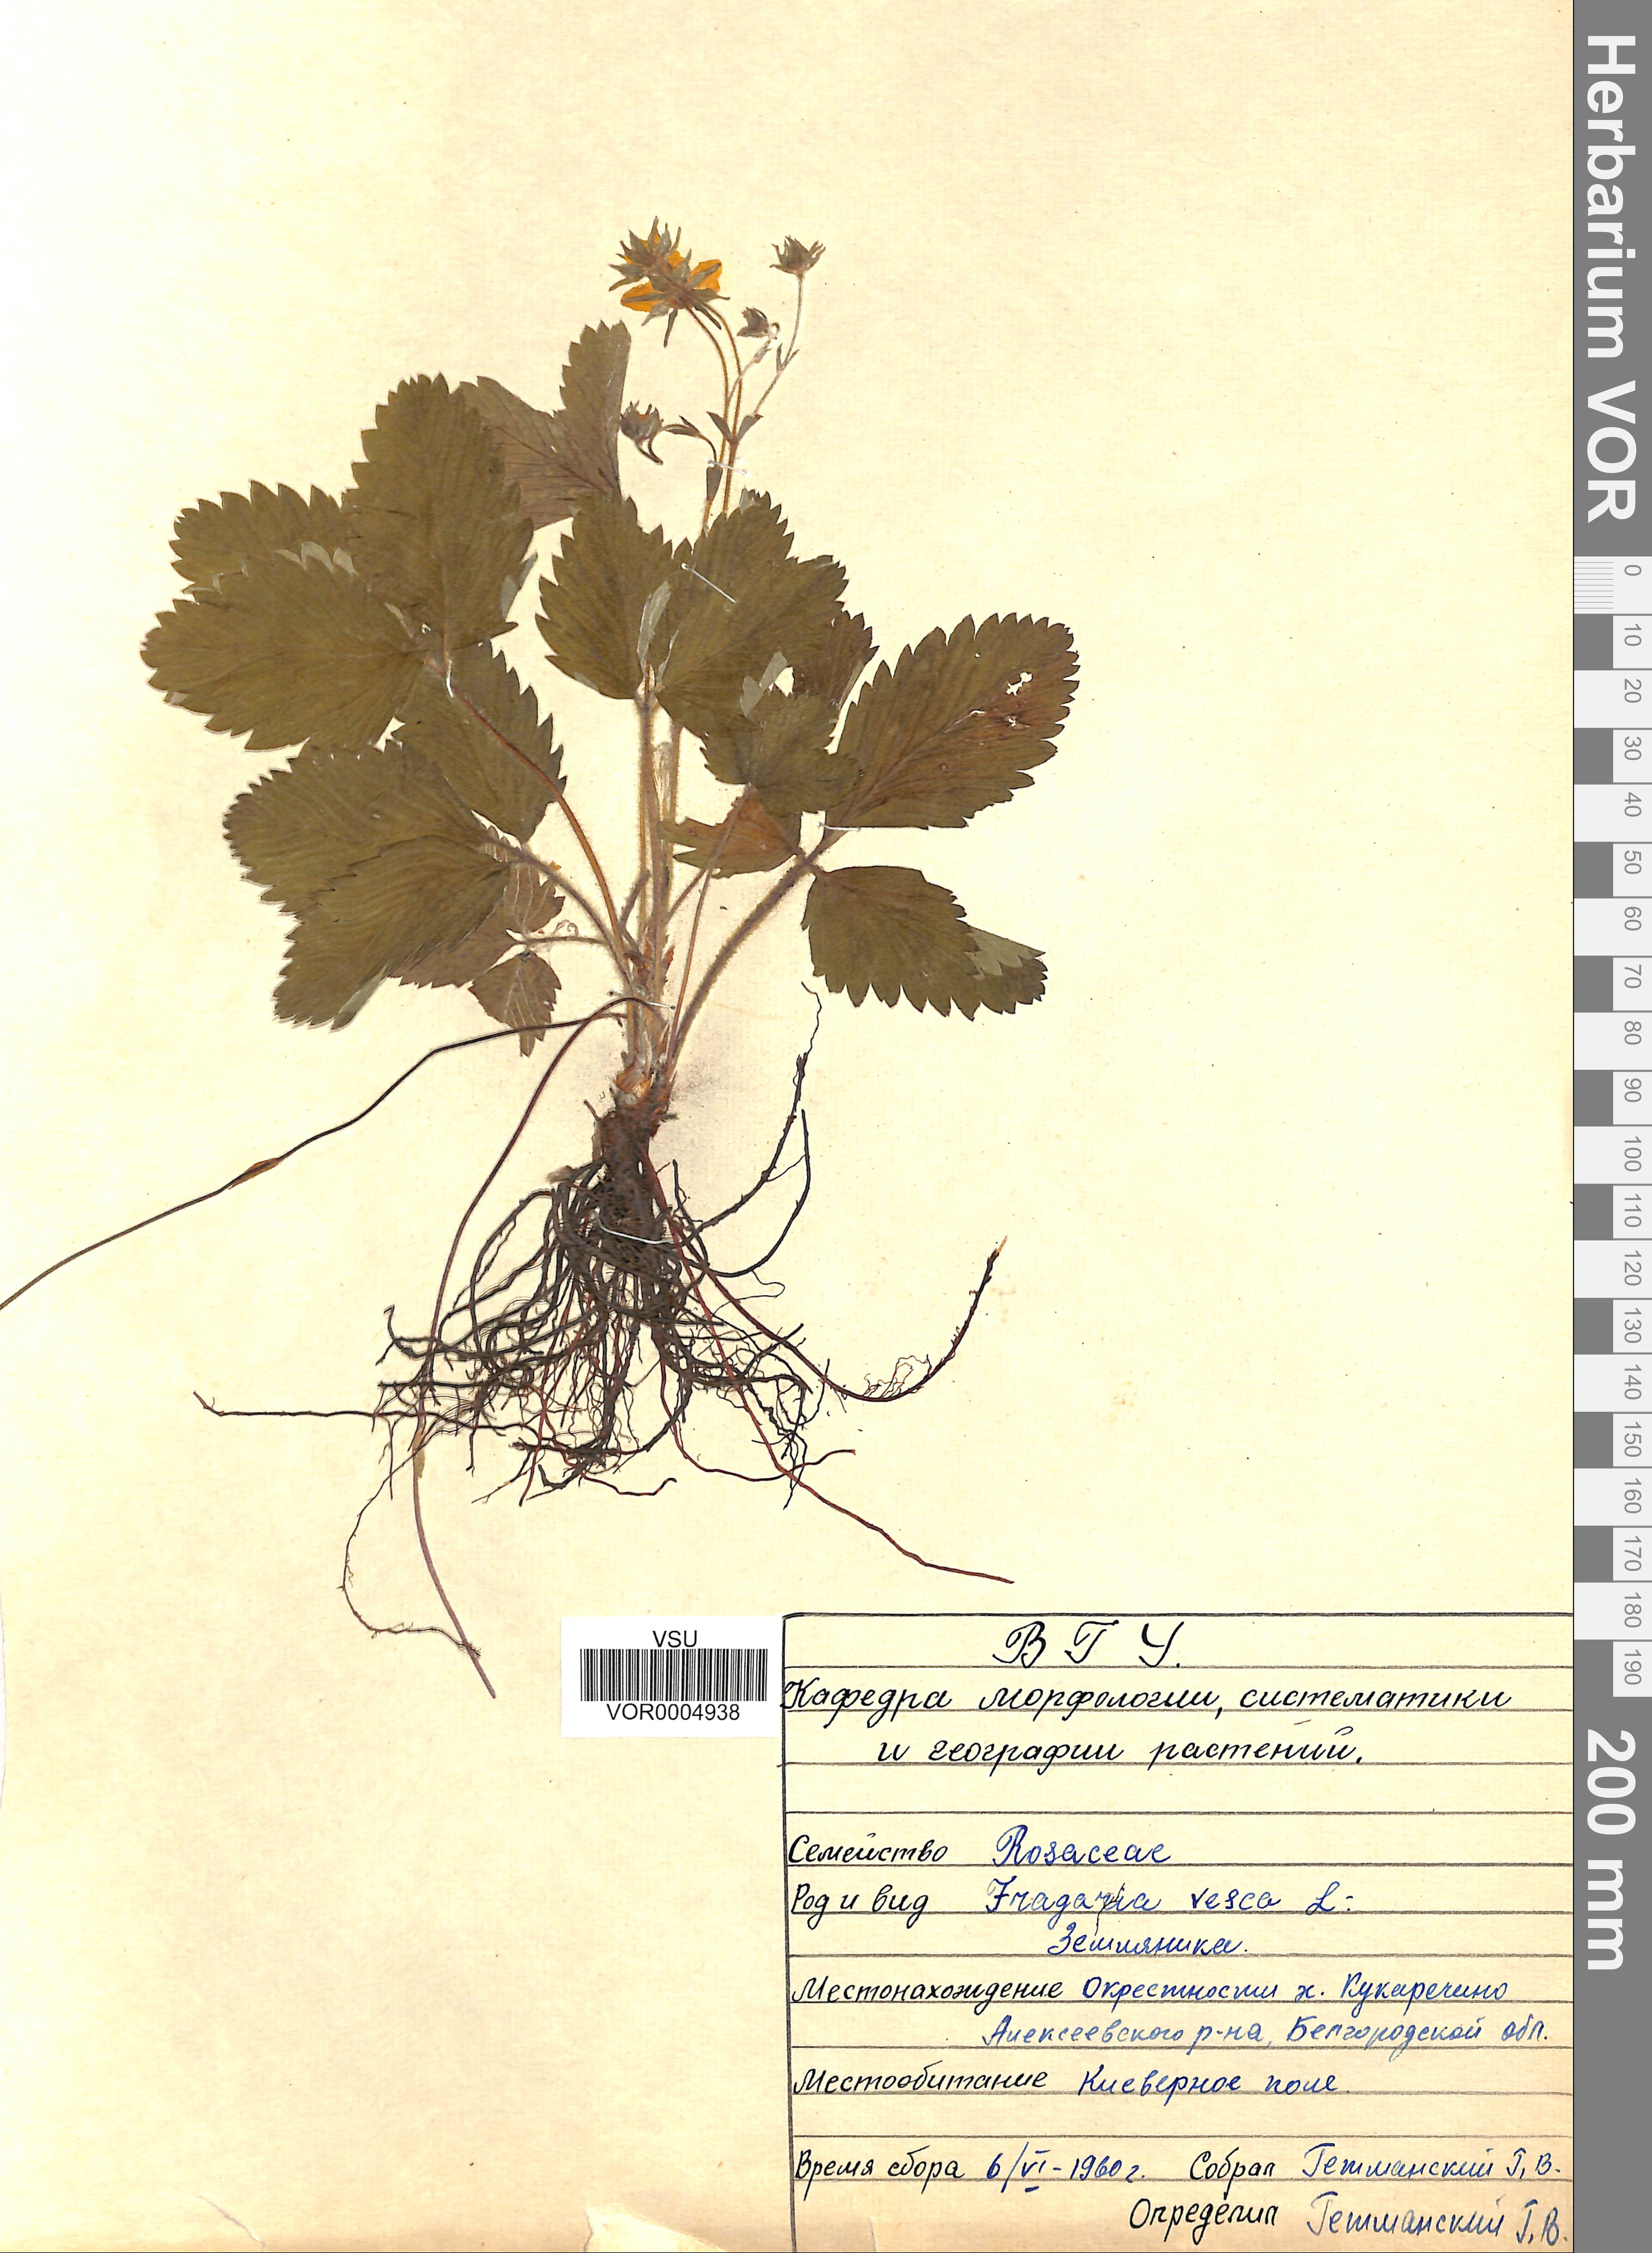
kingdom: Plantae
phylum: Tracheophyta
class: Magnoliopsida
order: Rosales
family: Rosaceae
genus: Fragaria
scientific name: Fragaria vesca
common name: Wild strawberry
